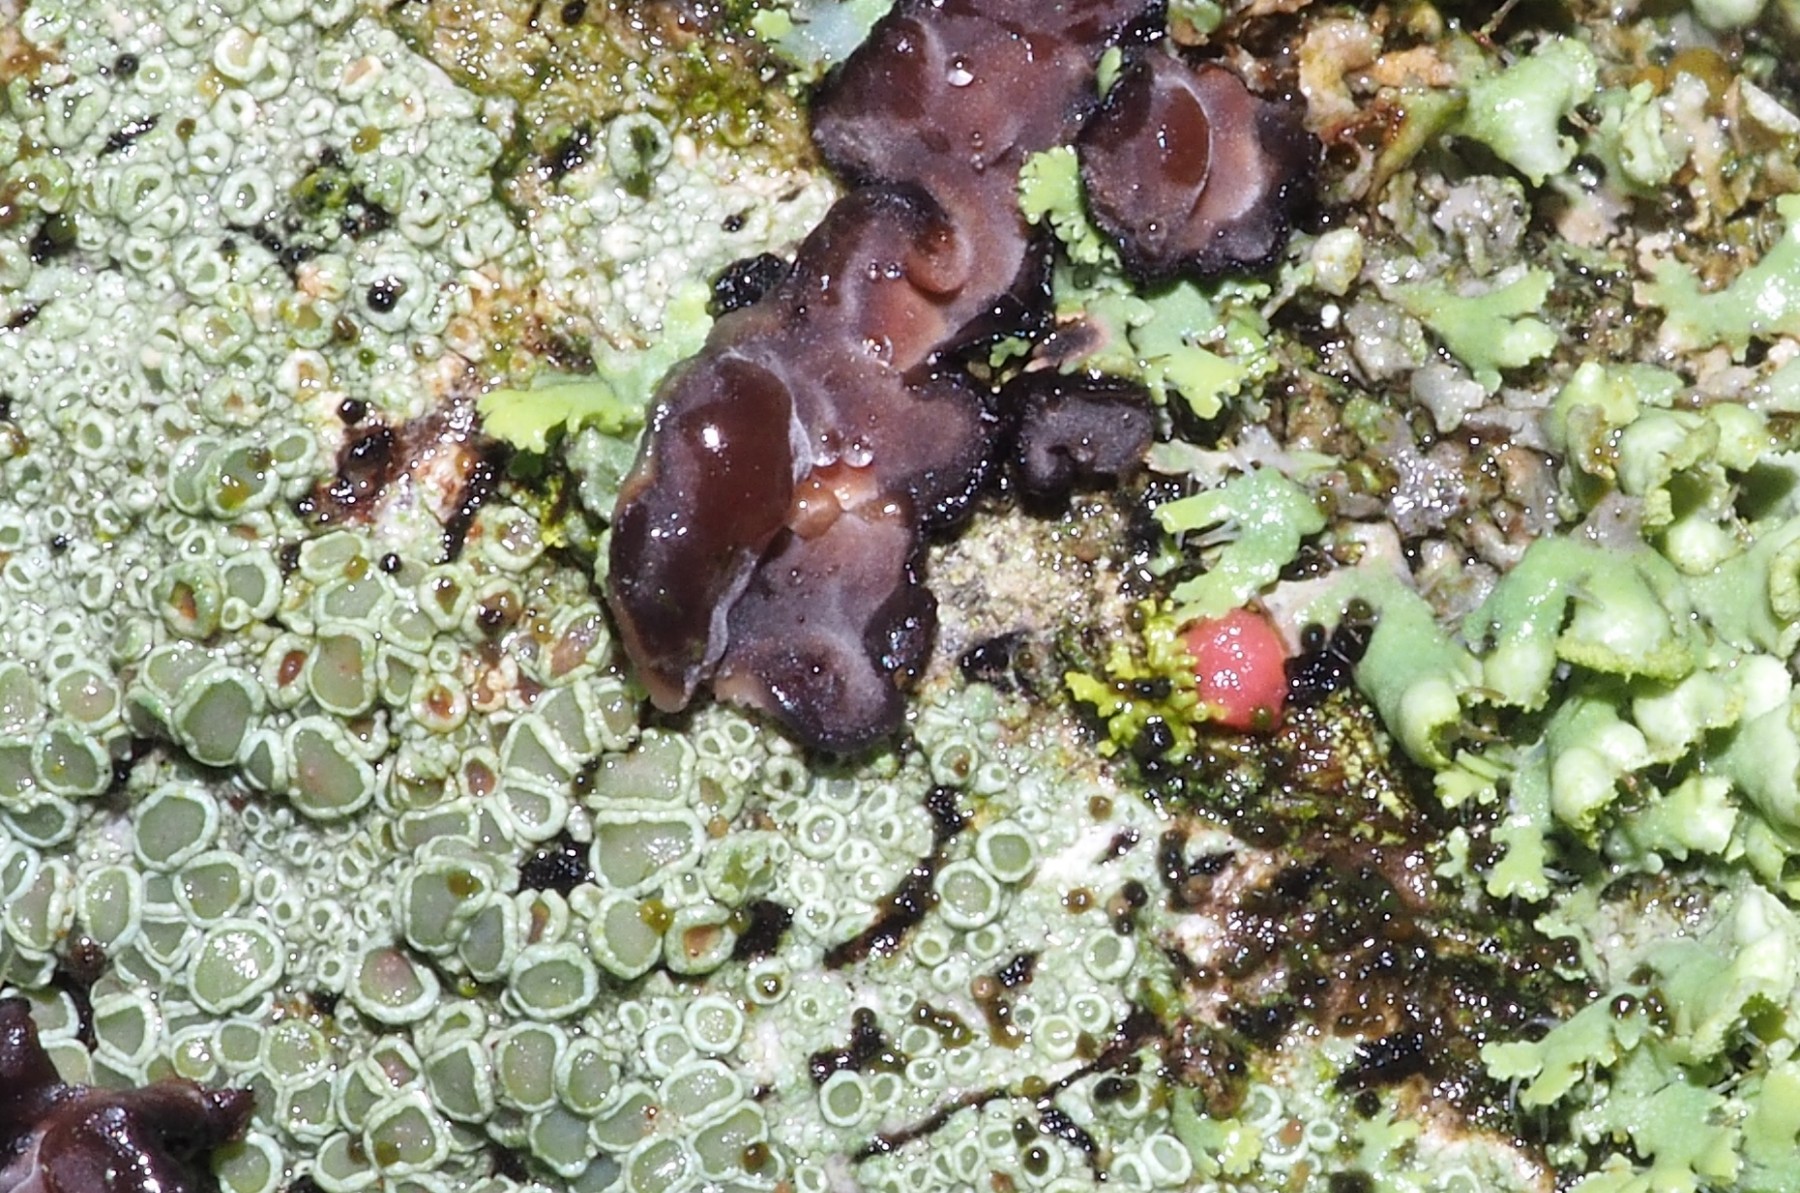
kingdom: Fungi
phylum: Ascomycota
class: Sordariomycetes
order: Hypocreales
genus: Illosporiopsis
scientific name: Illosporiopsis christiansenii
